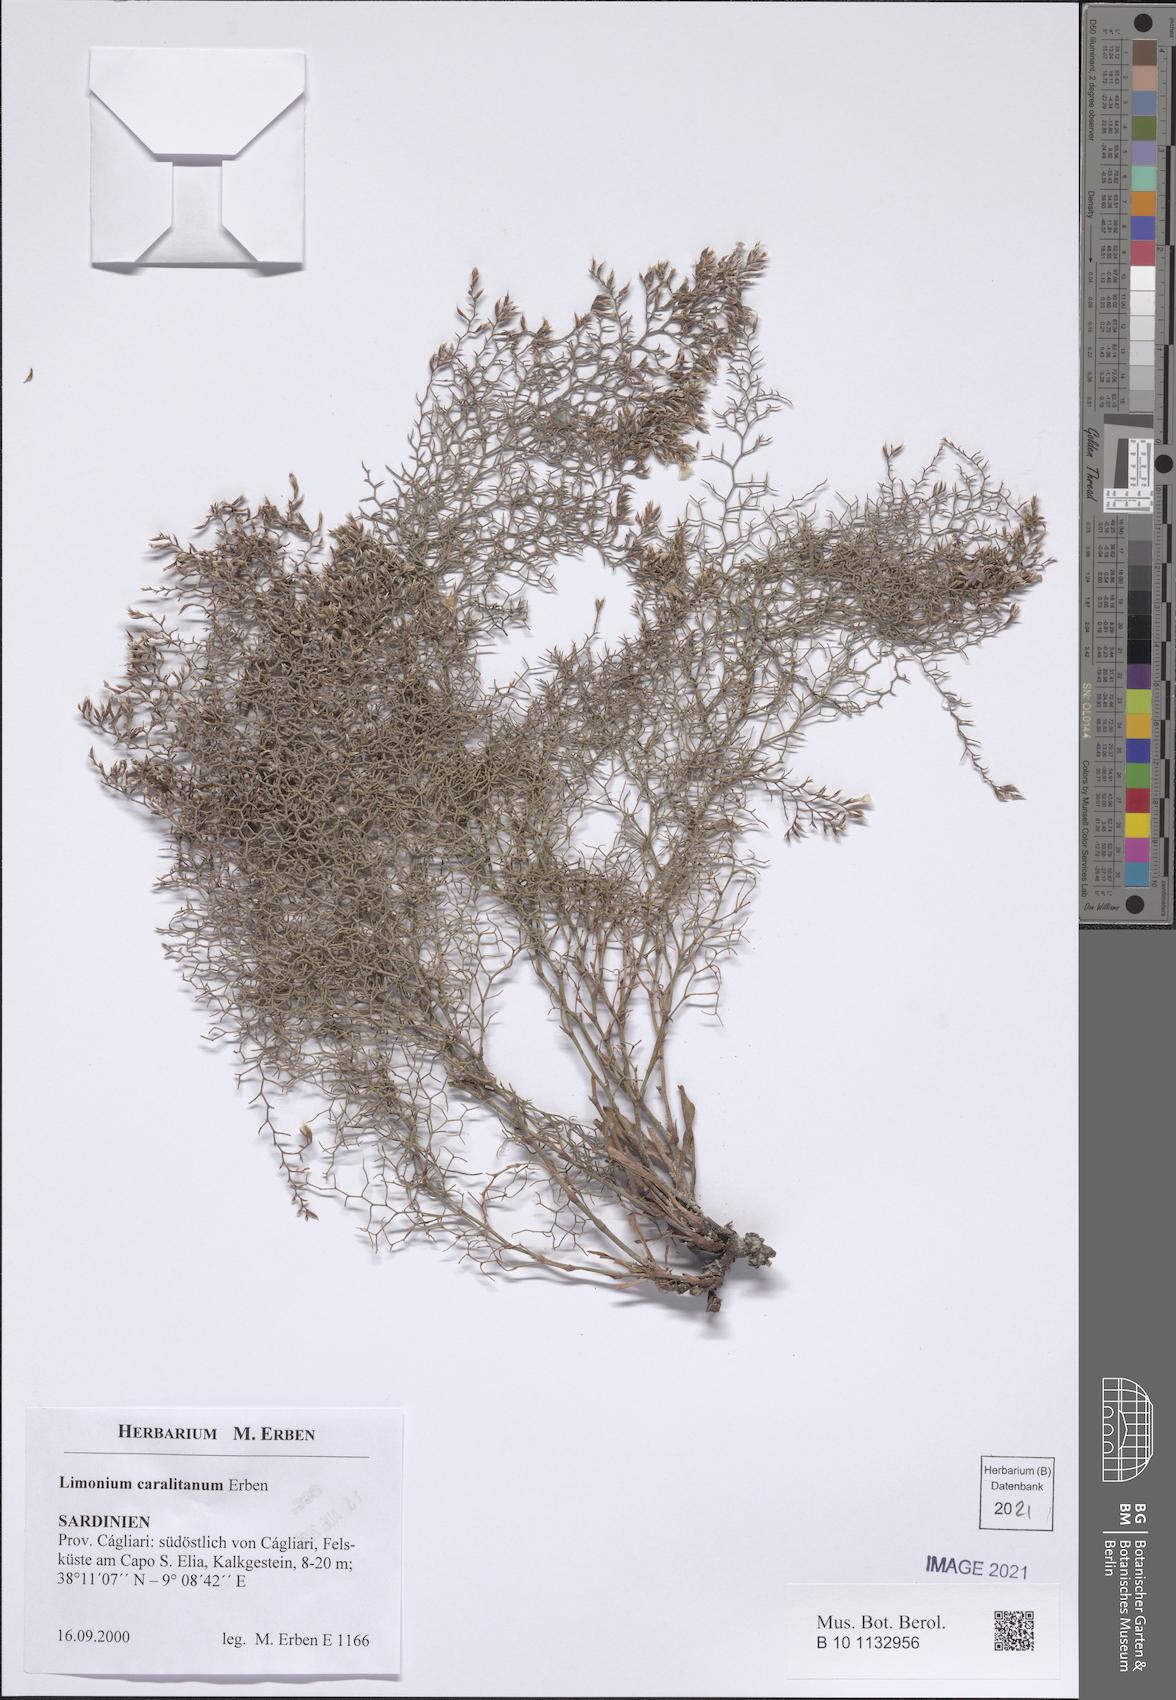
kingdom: Plantae
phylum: Tracheophyta
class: Magnoliopsida
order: Caryophyllales
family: Plumbaginaceae
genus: Limonium
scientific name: Limonium sardoum
